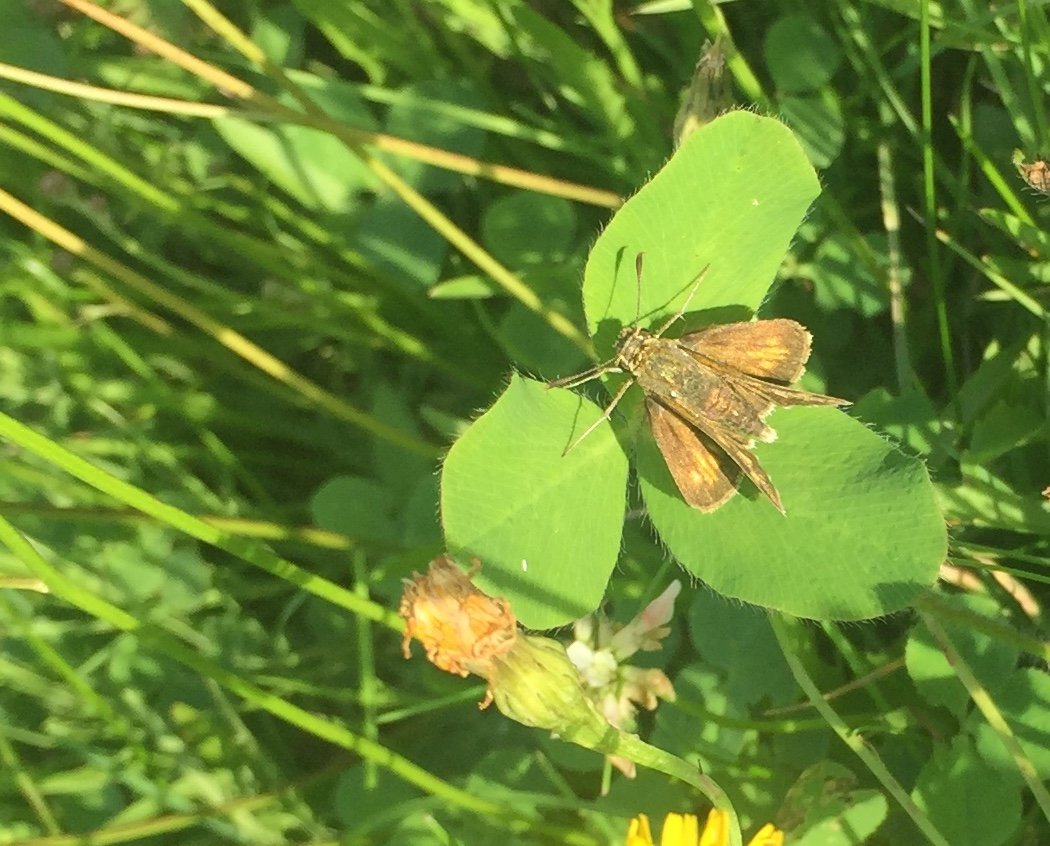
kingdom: Animalia
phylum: Arthropoda
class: Insecta
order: Lepidoptera
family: Hesperiidae
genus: Polites
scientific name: Polites coras
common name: Peck's Skipper
